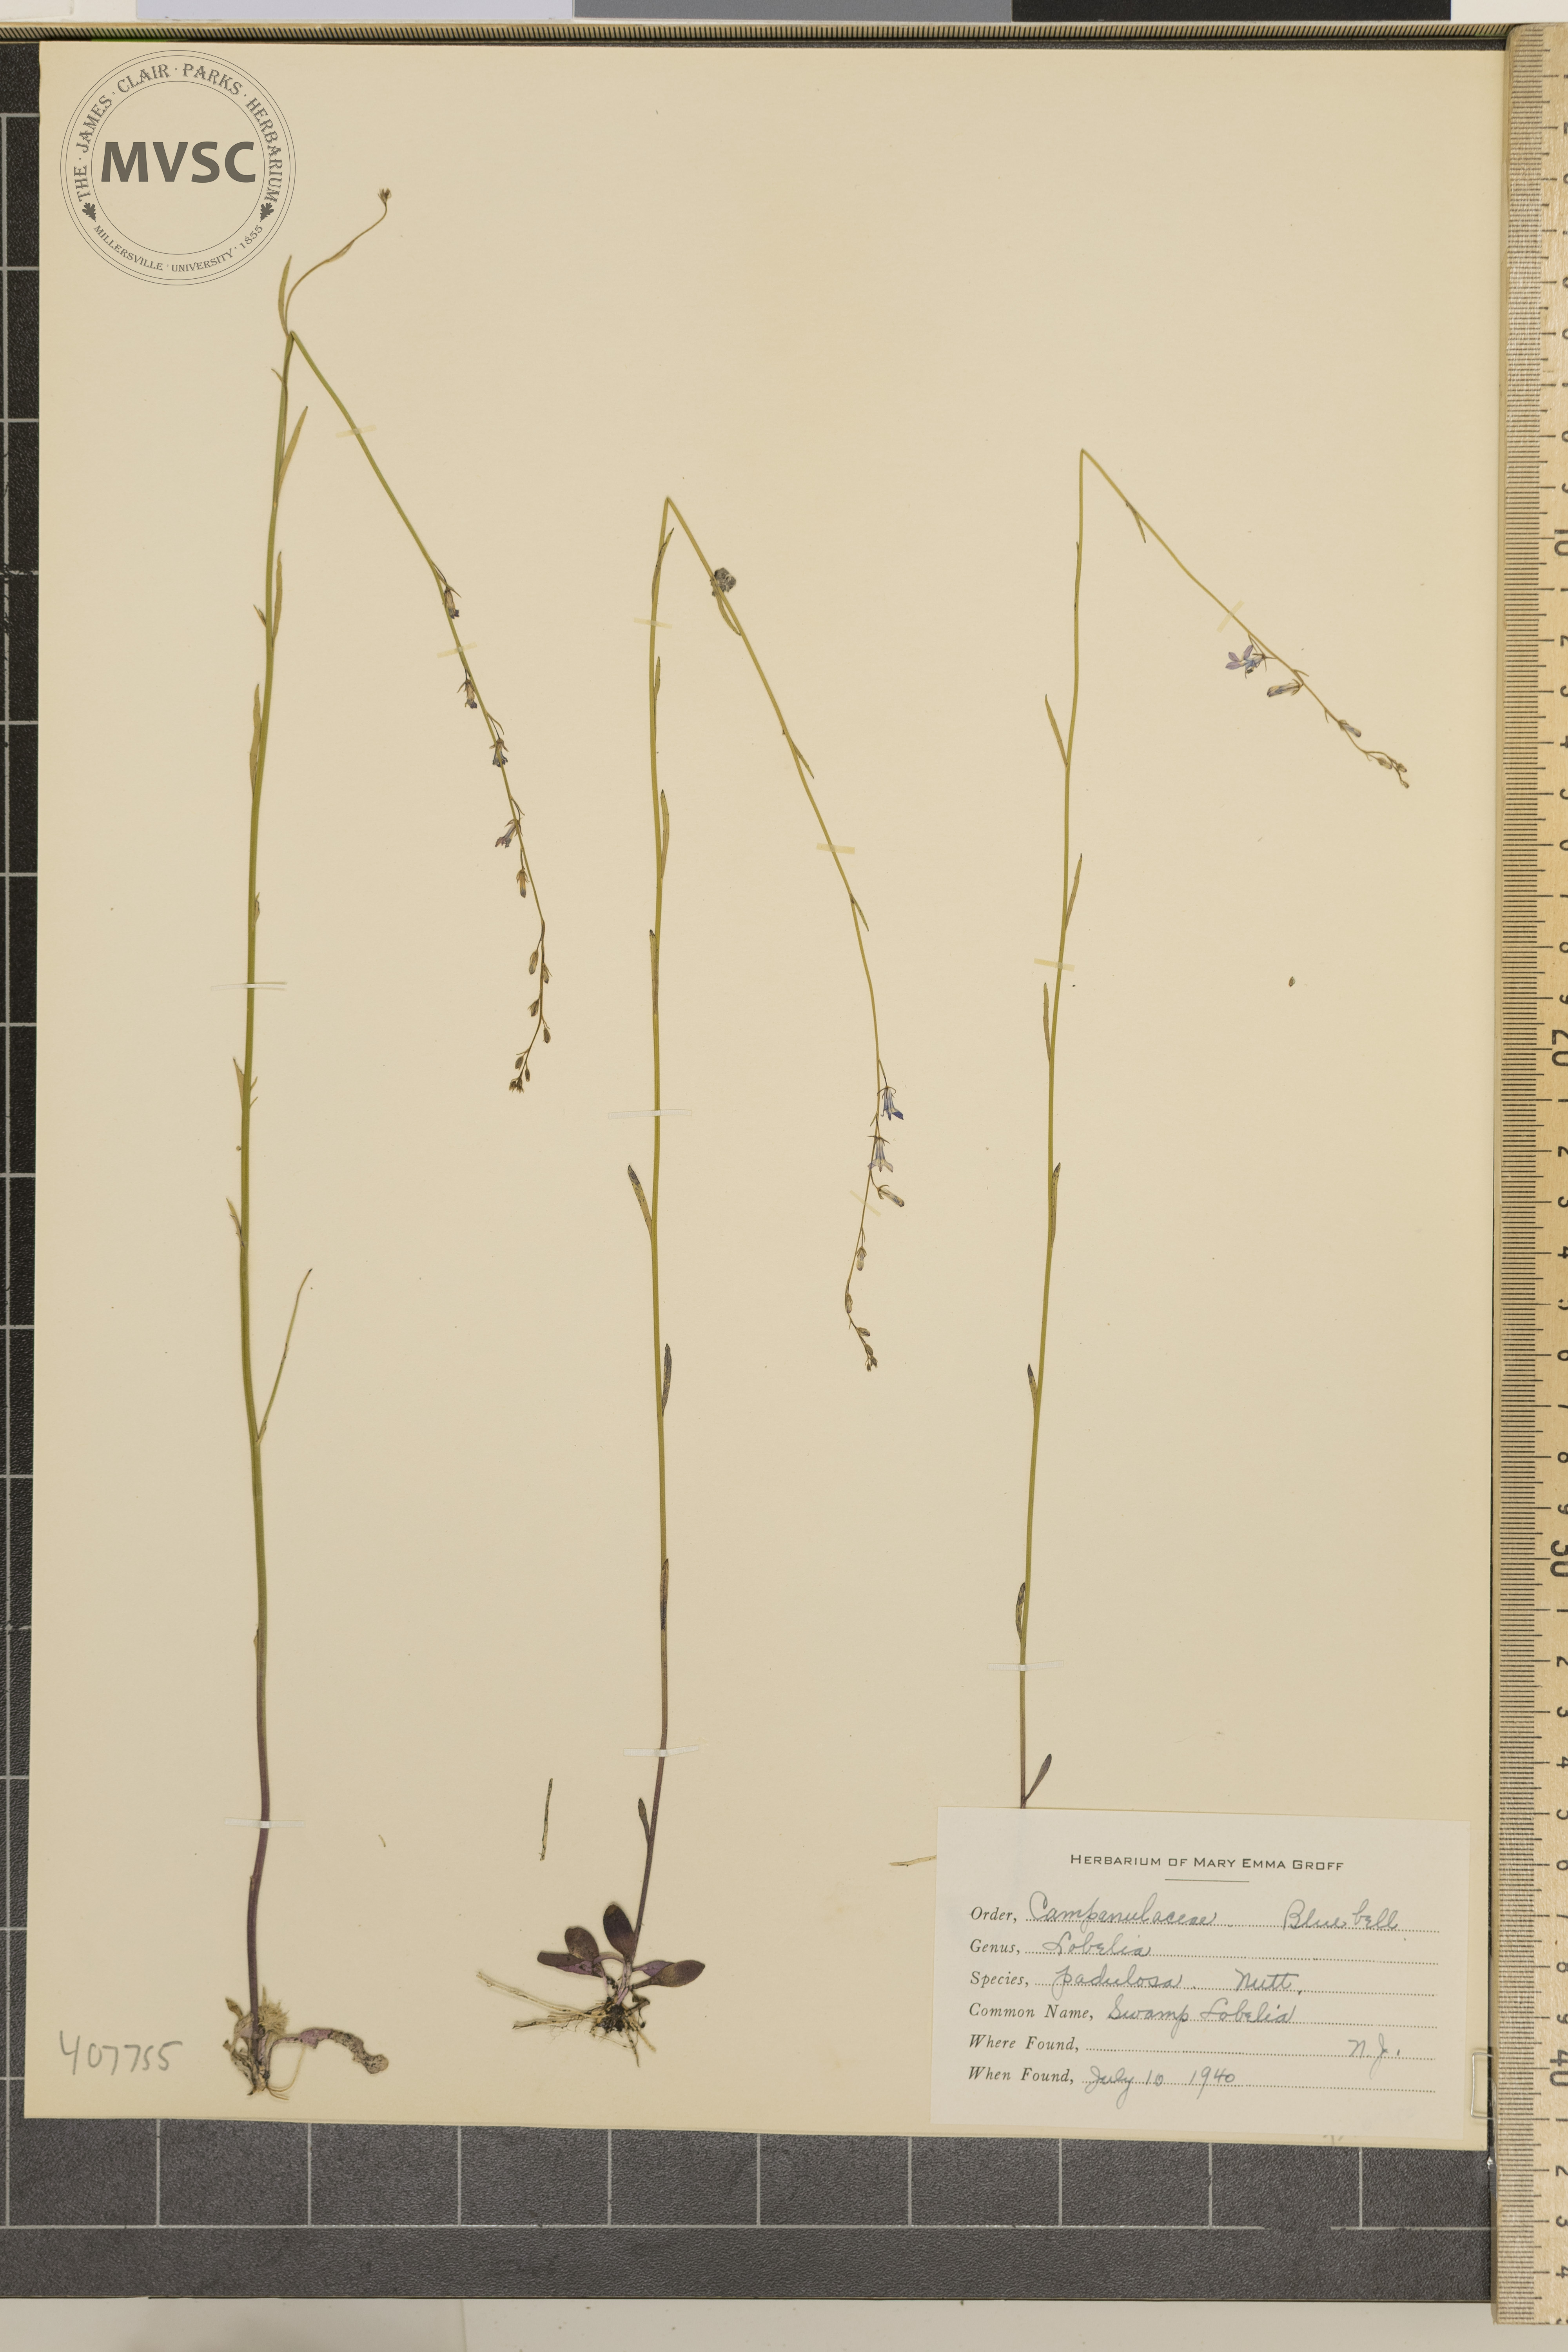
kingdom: Plantae
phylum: Tracheophyta
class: Magnoliopsida
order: Asterales
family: Campanulaceae
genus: Lobelia
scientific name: Lobelia paludosa
